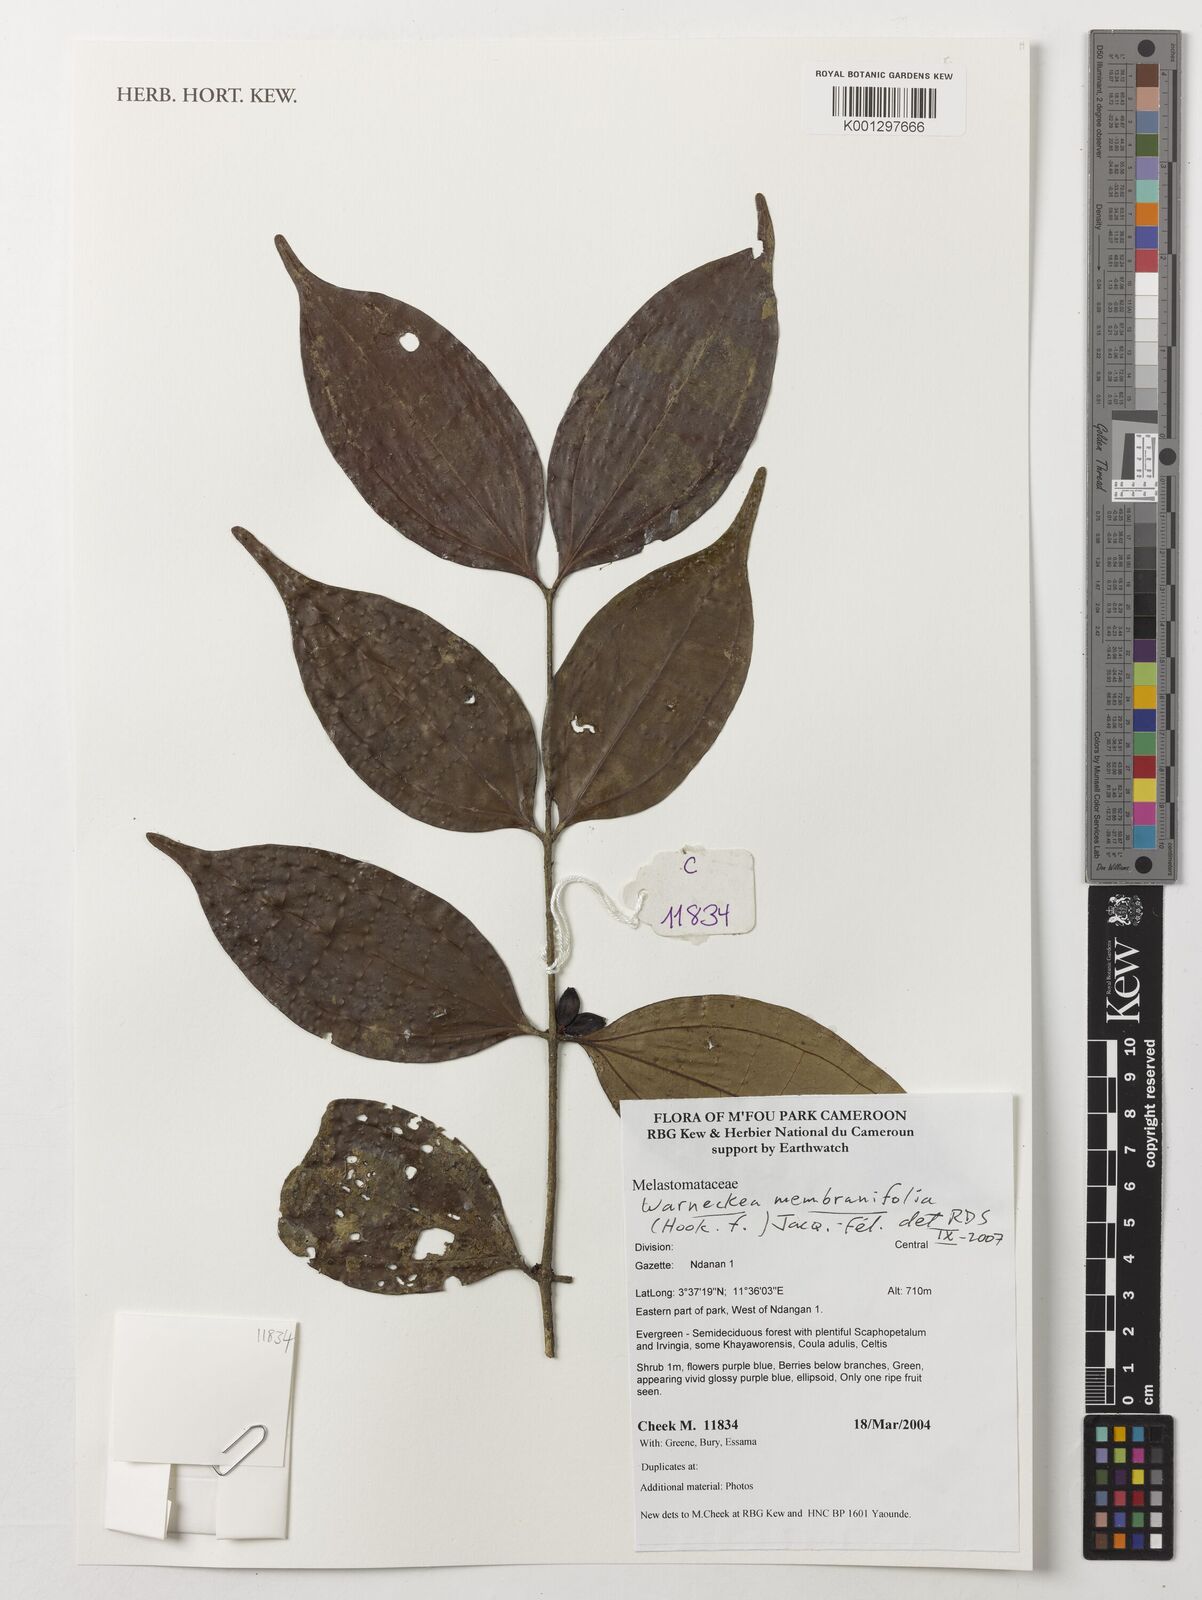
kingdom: Plantae
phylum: Tracheophyta
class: Magnoliopsida
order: Myrtales
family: Melastomataceae
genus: Warneckea
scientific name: Warneckea membranifolia
